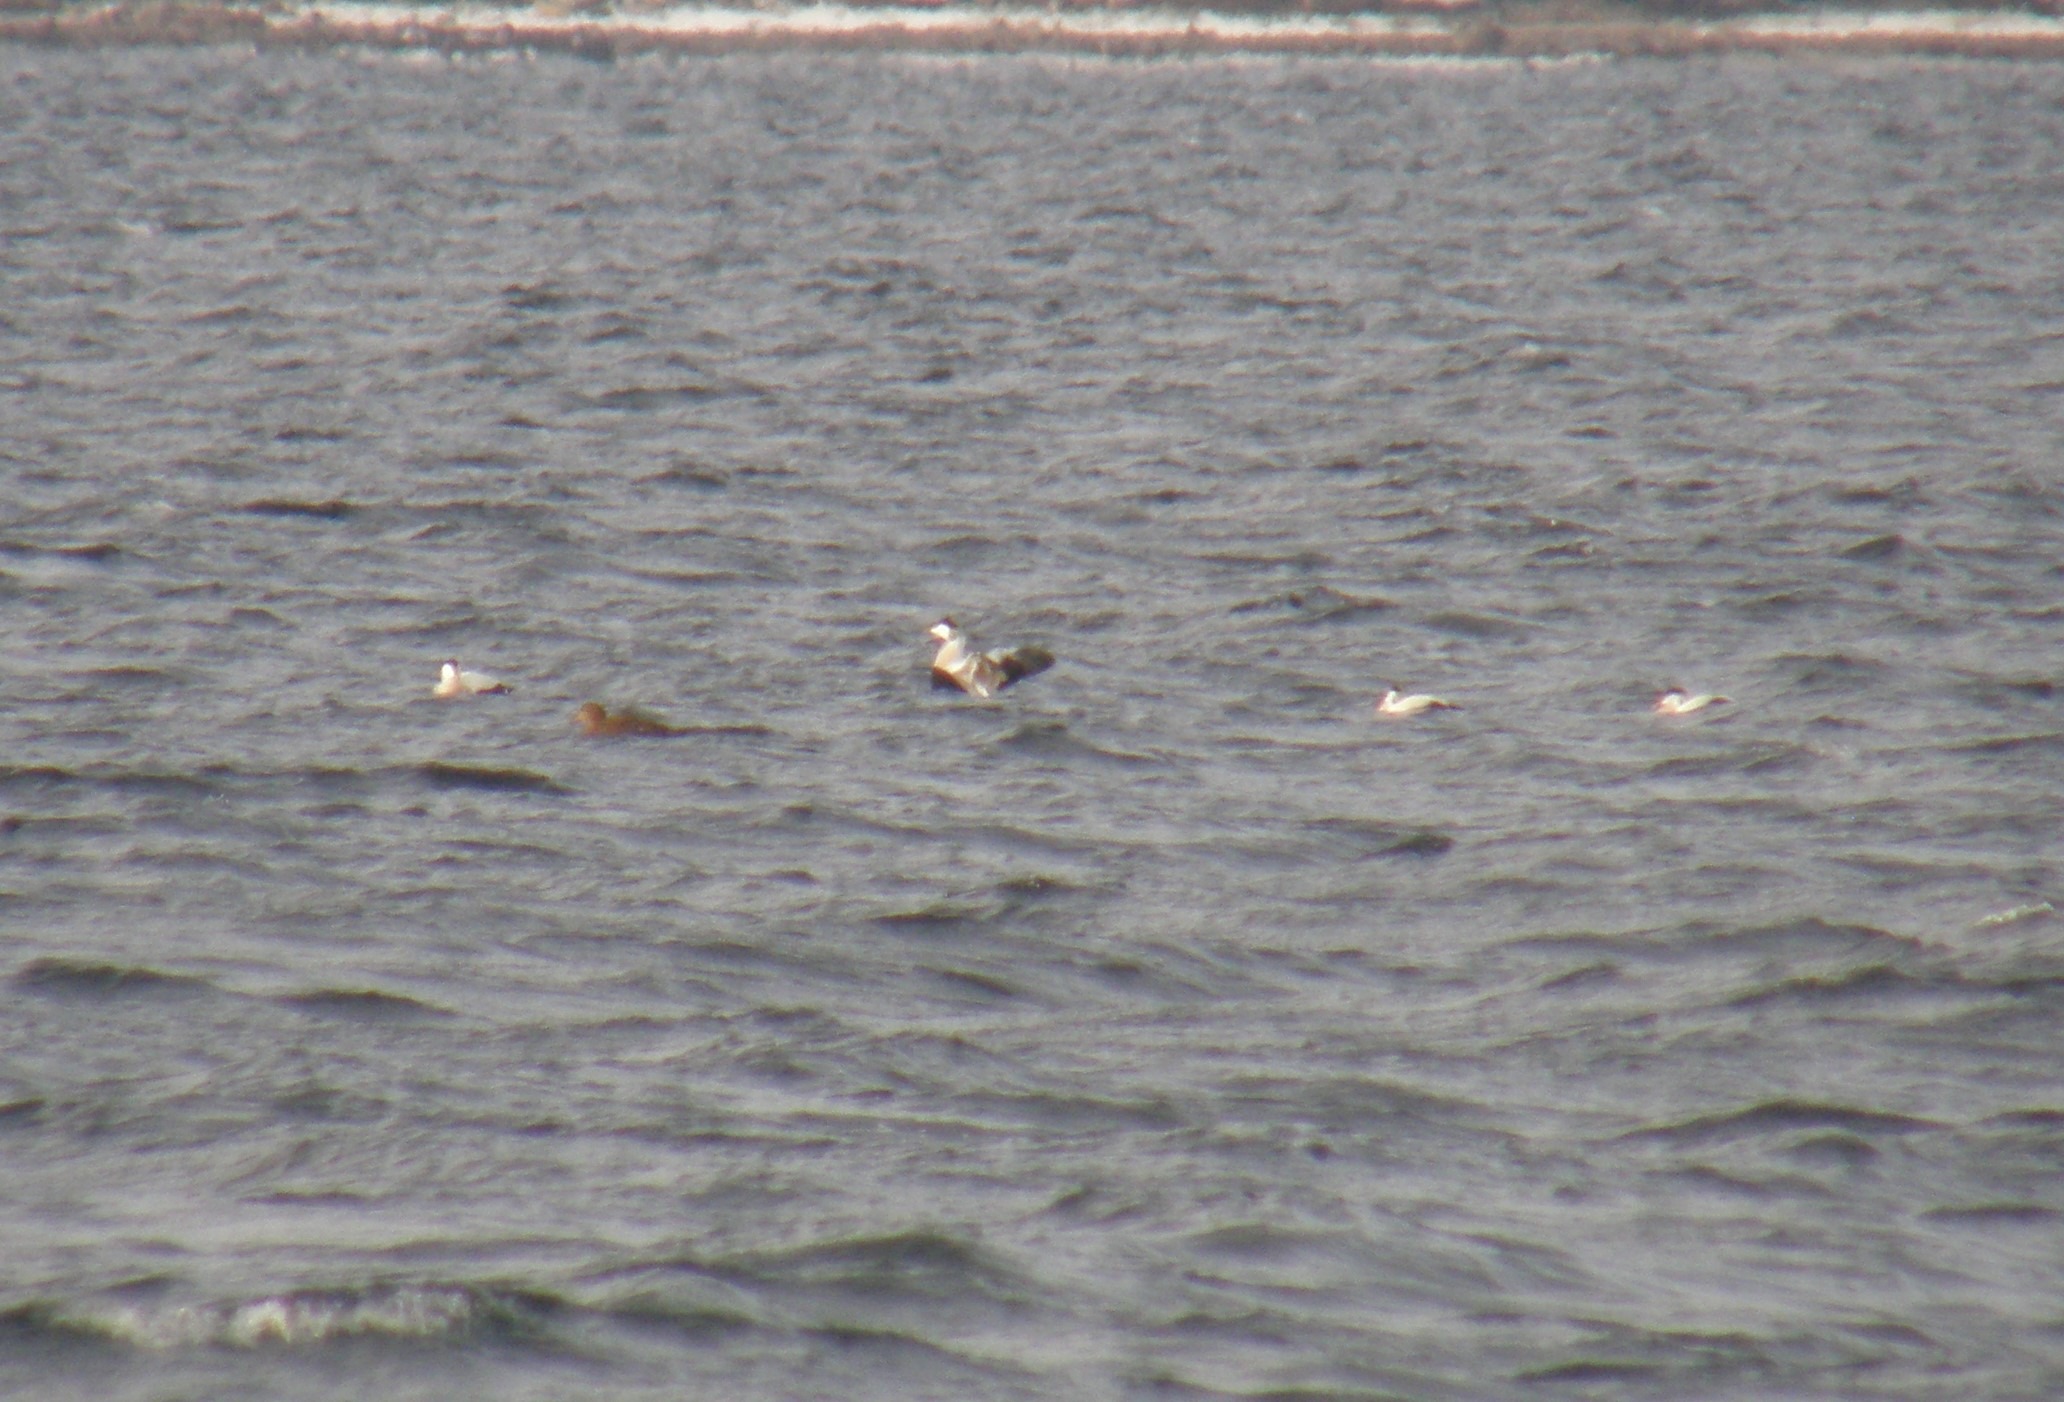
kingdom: Animalia
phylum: Chordata
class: Aves
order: Anseriformes
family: Anatidae
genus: Somateria
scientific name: Somateria mollissima
